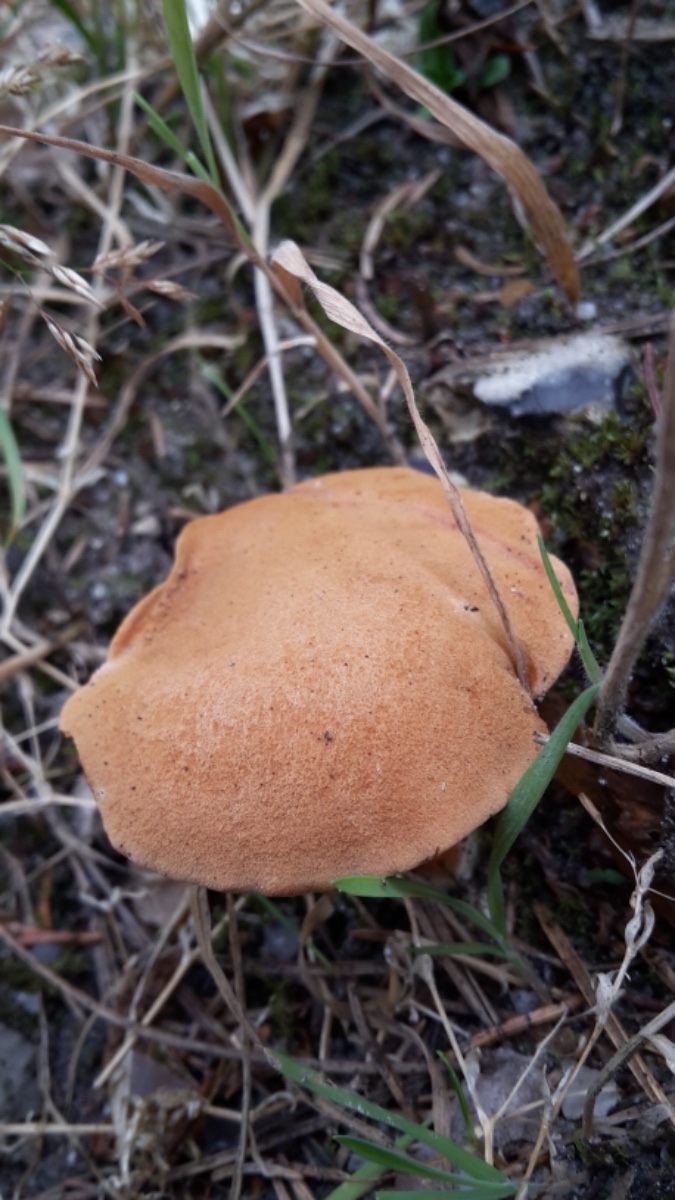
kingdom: Fungi
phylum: Basidiomycota
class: Agaricomycetes
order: Boletales
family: Boletaceae
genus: Chalciporus
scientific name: Chalciporus piperatus
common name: peberrørhat
